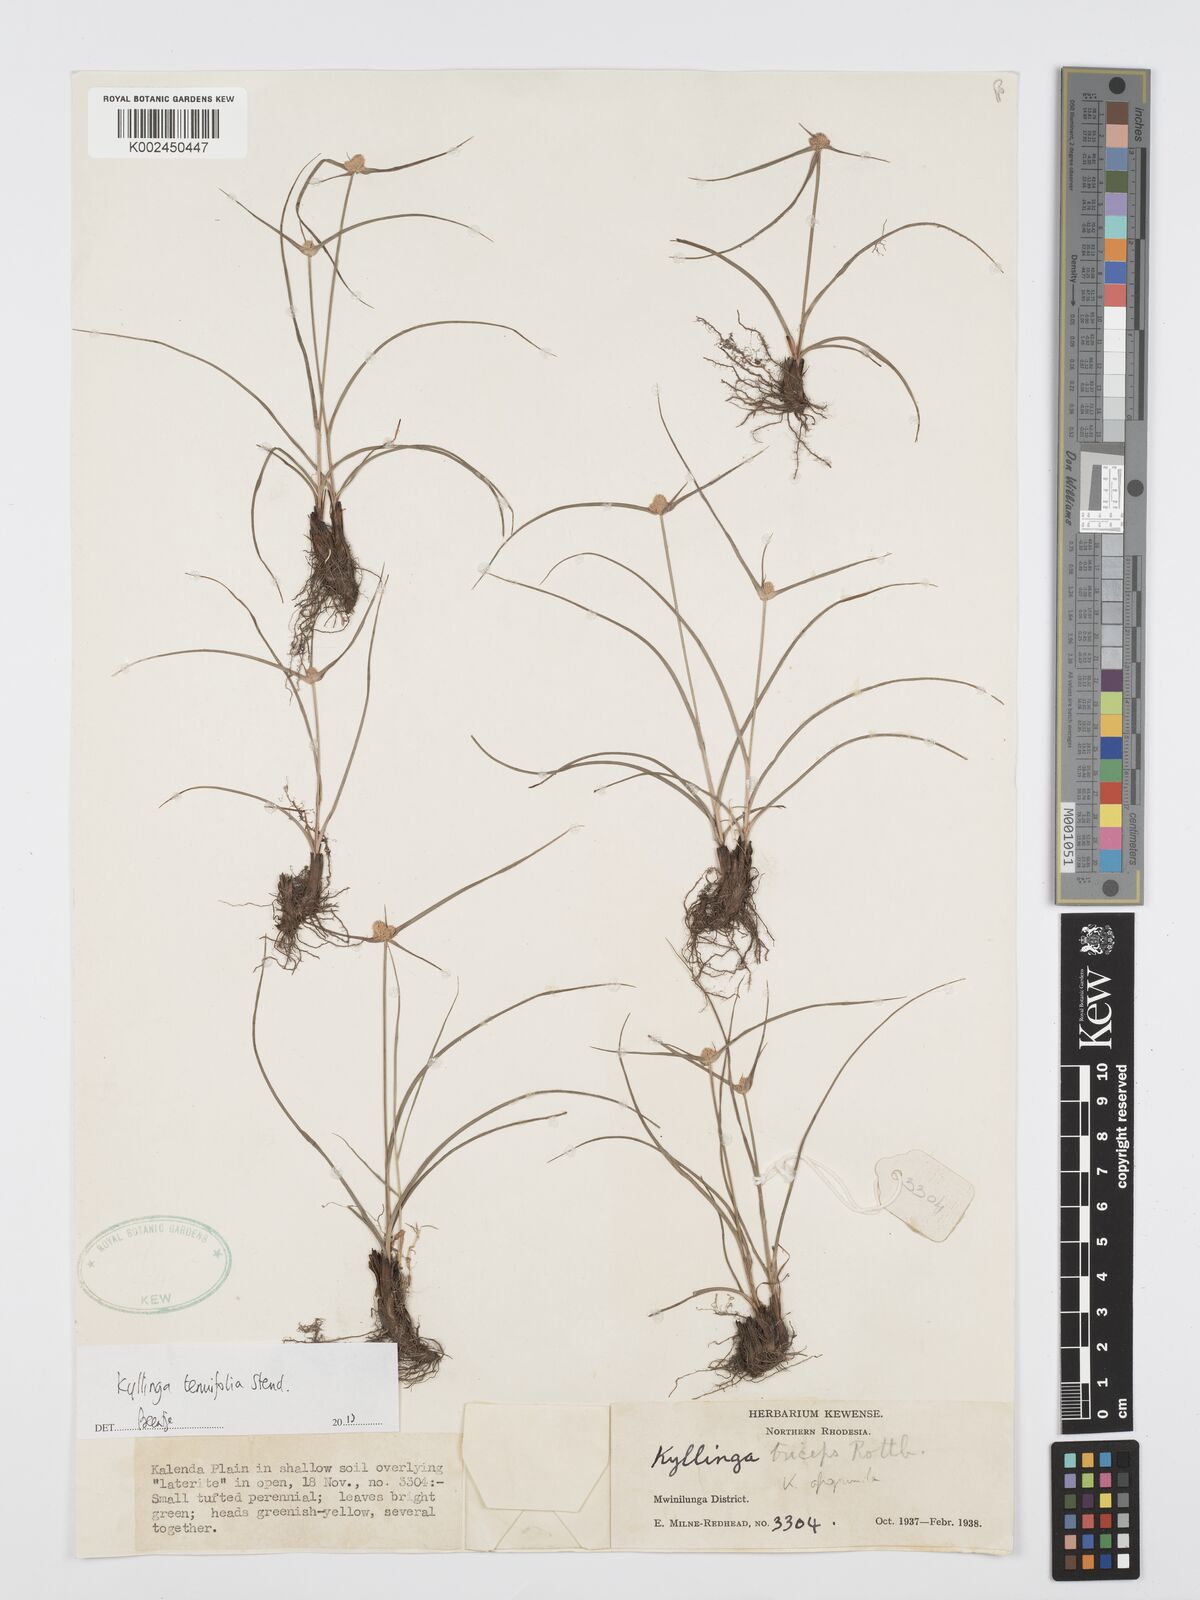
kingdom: Plantae
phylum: Tracheophyta
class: Liliopsida
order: Poales
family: Cyperaceae
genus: Cyperus
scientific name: Cyperus tenuifolius
